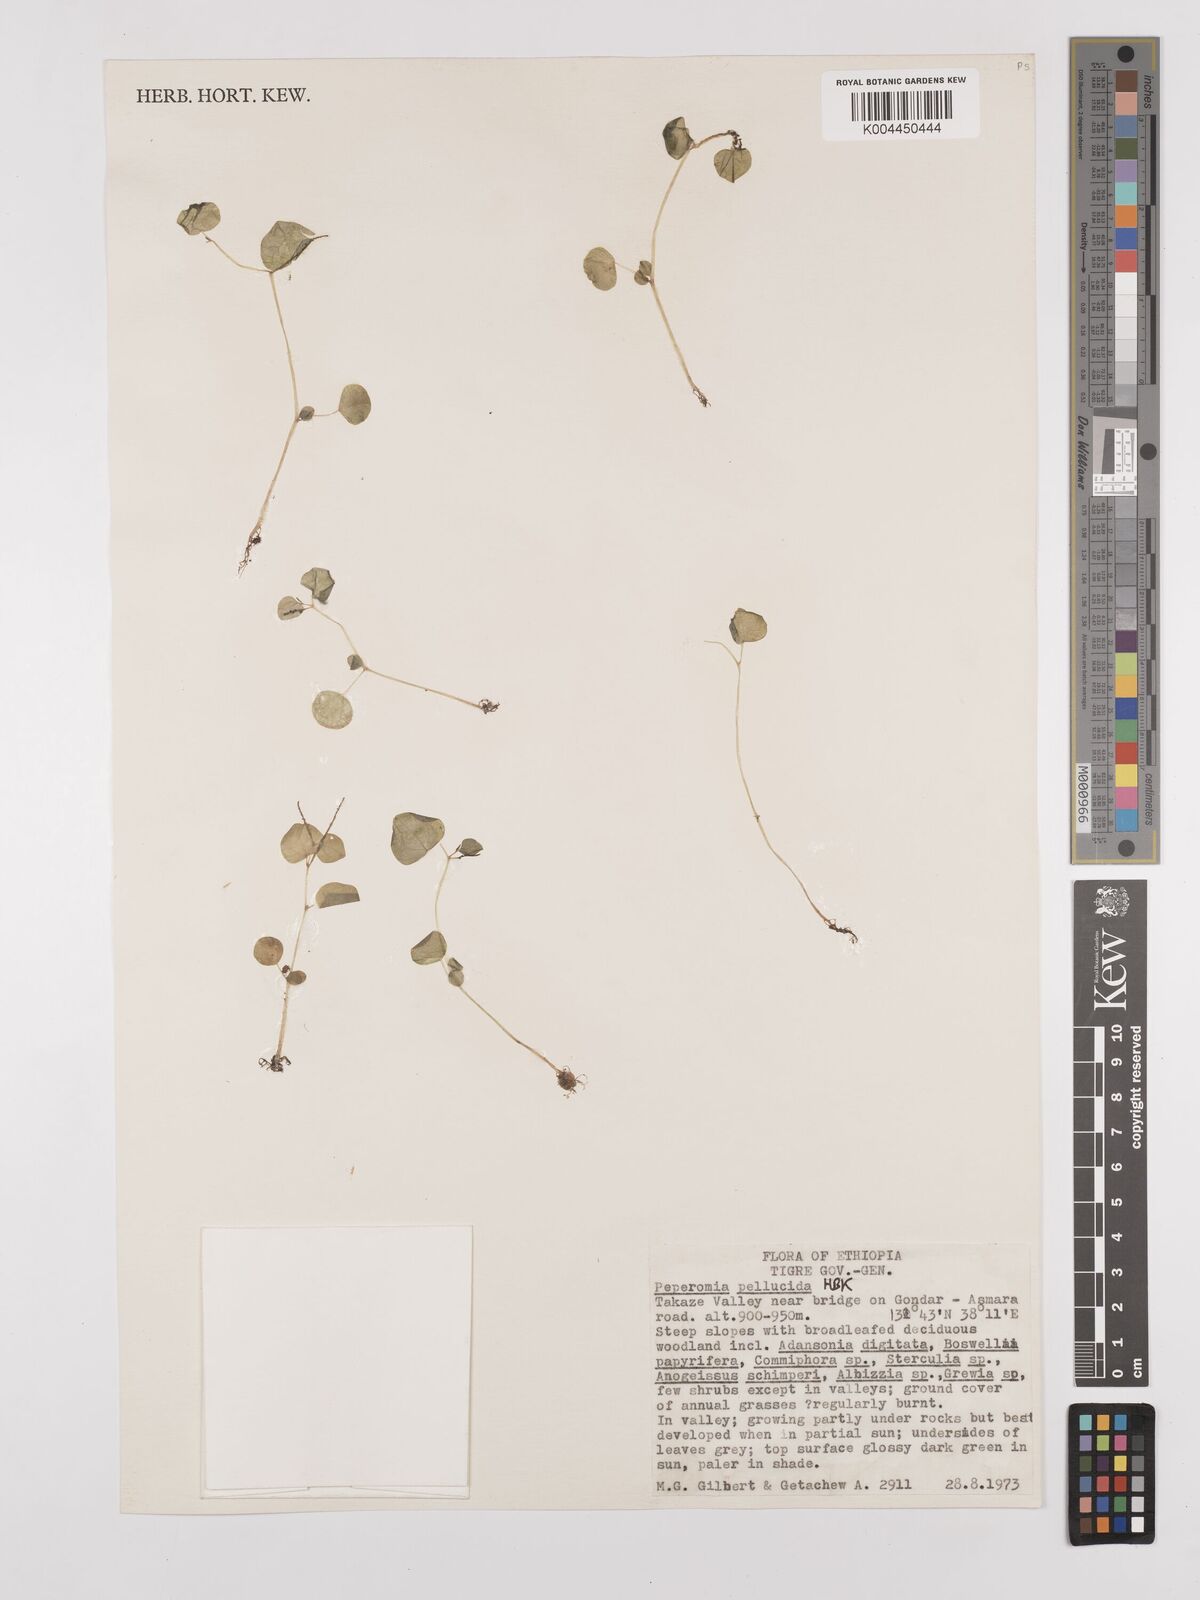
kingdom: Plantae
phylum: Tracheophyta
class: Magnoliopsida
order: Piperales
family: Piperaceae
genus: Peperomia
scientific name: Peperomia pellucida
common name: Man to man
